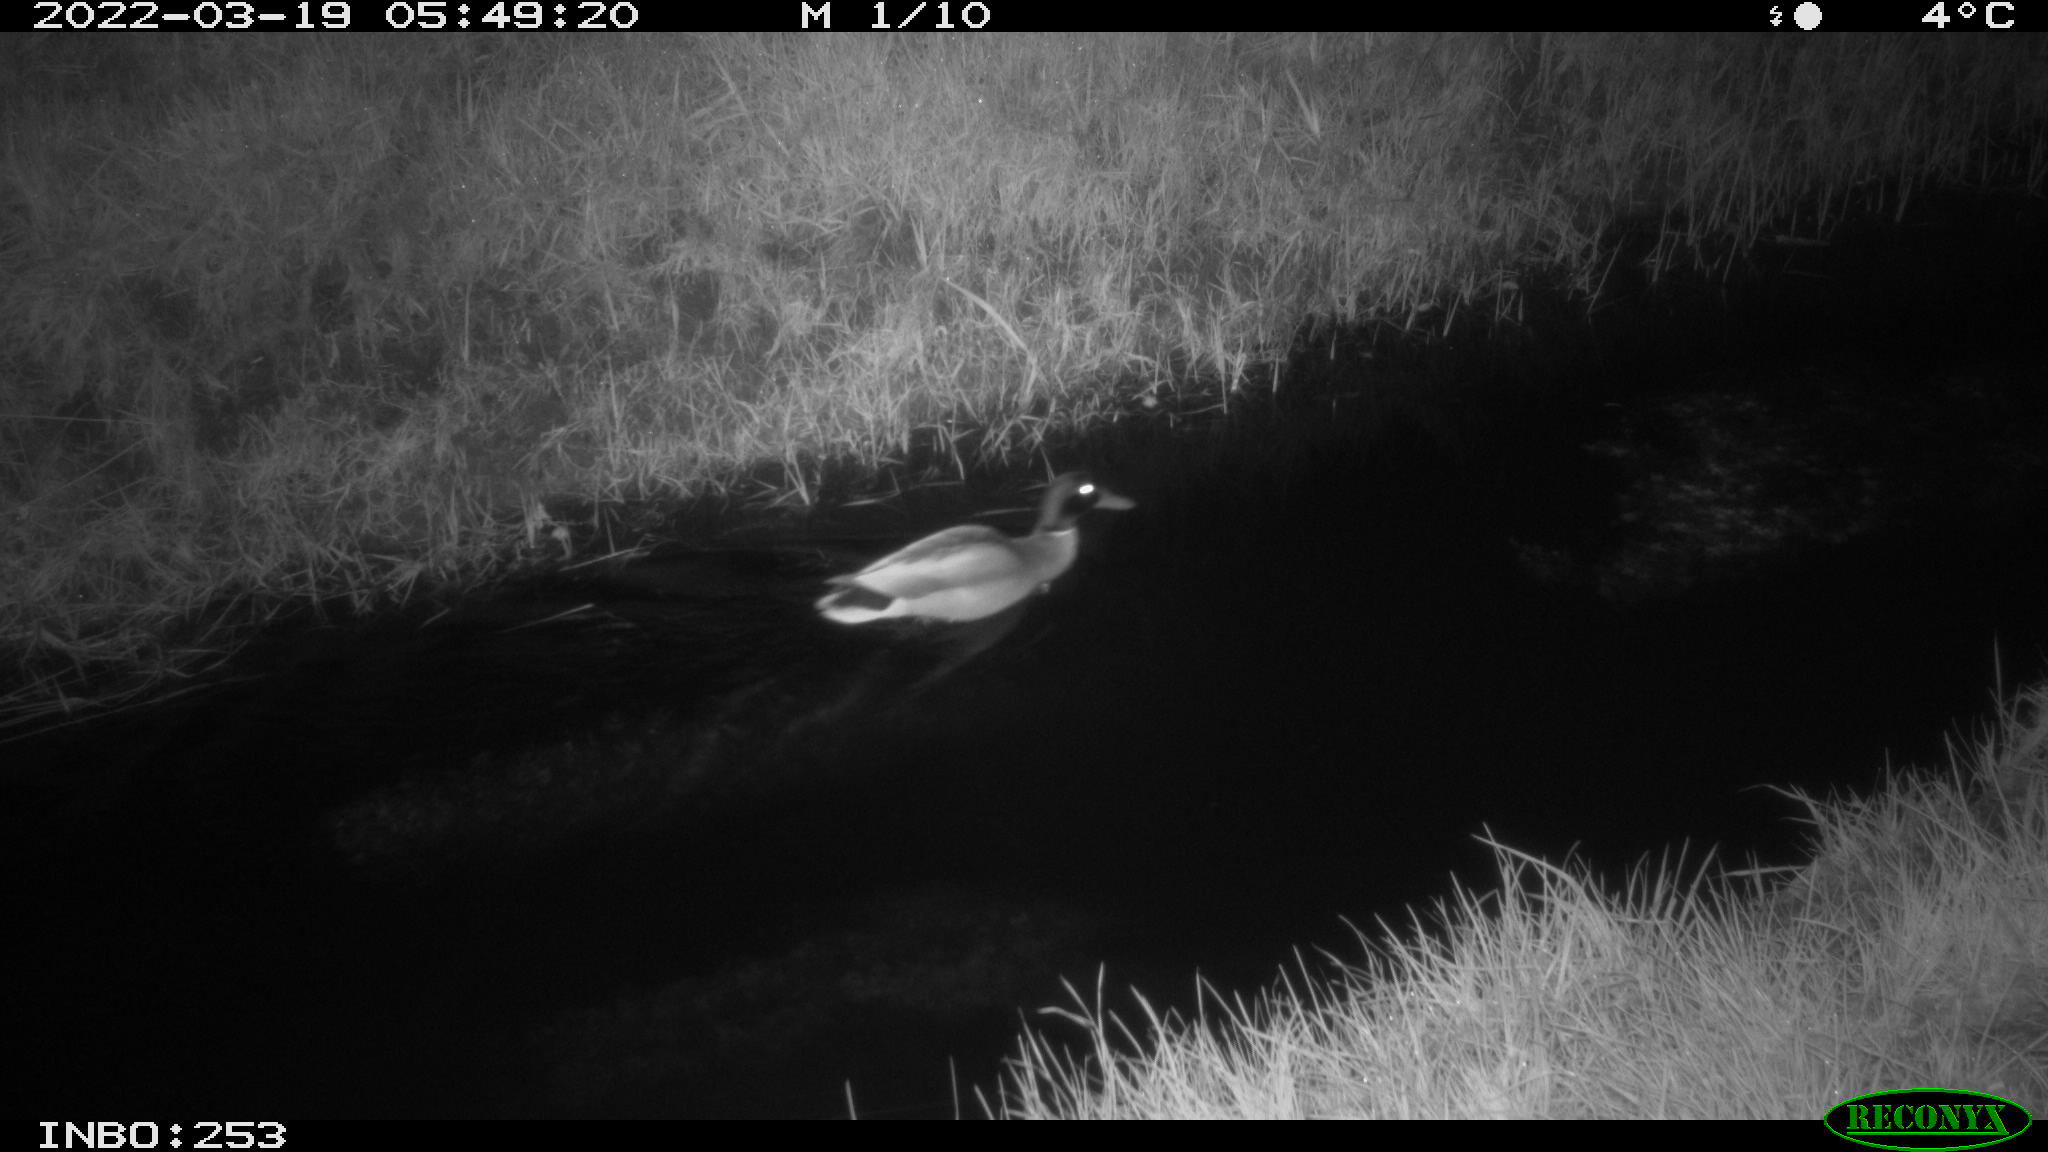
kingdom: Animalia
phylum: Chordata
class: Aves
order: Anseriformes
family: Anatidae
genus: Anas
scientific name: Anas platyrhynchos
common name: Mallard
